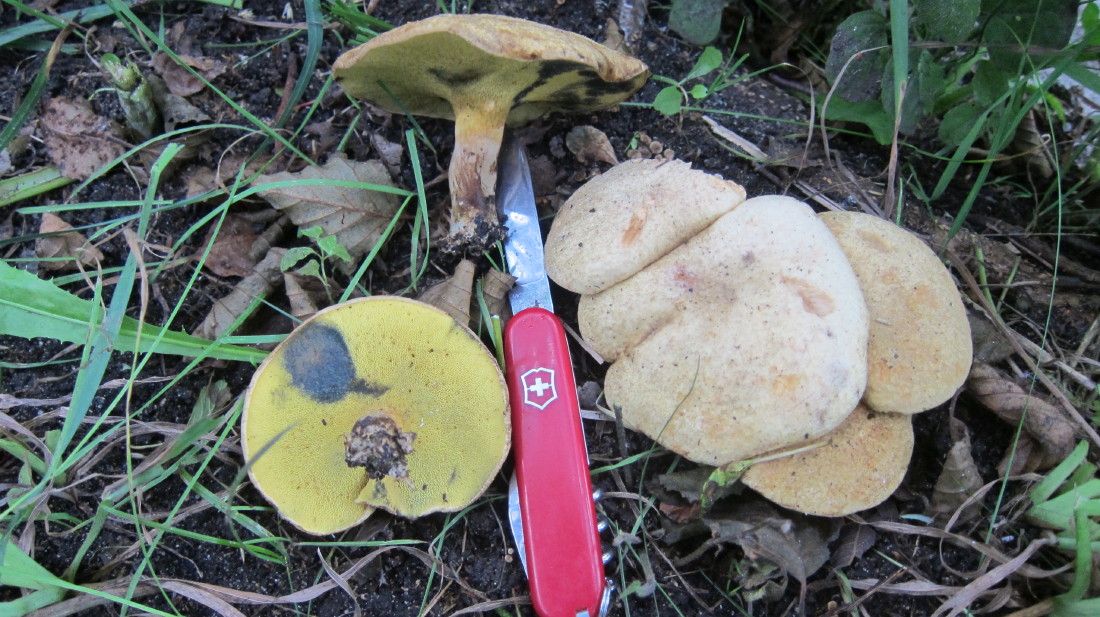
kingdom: Fungi
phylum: Basidiomycota
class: Agaricomycetes
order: Boletales
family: Paxillaceae
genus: Gyrodon
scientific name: Gyrodon lividus
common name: ellerørhat
